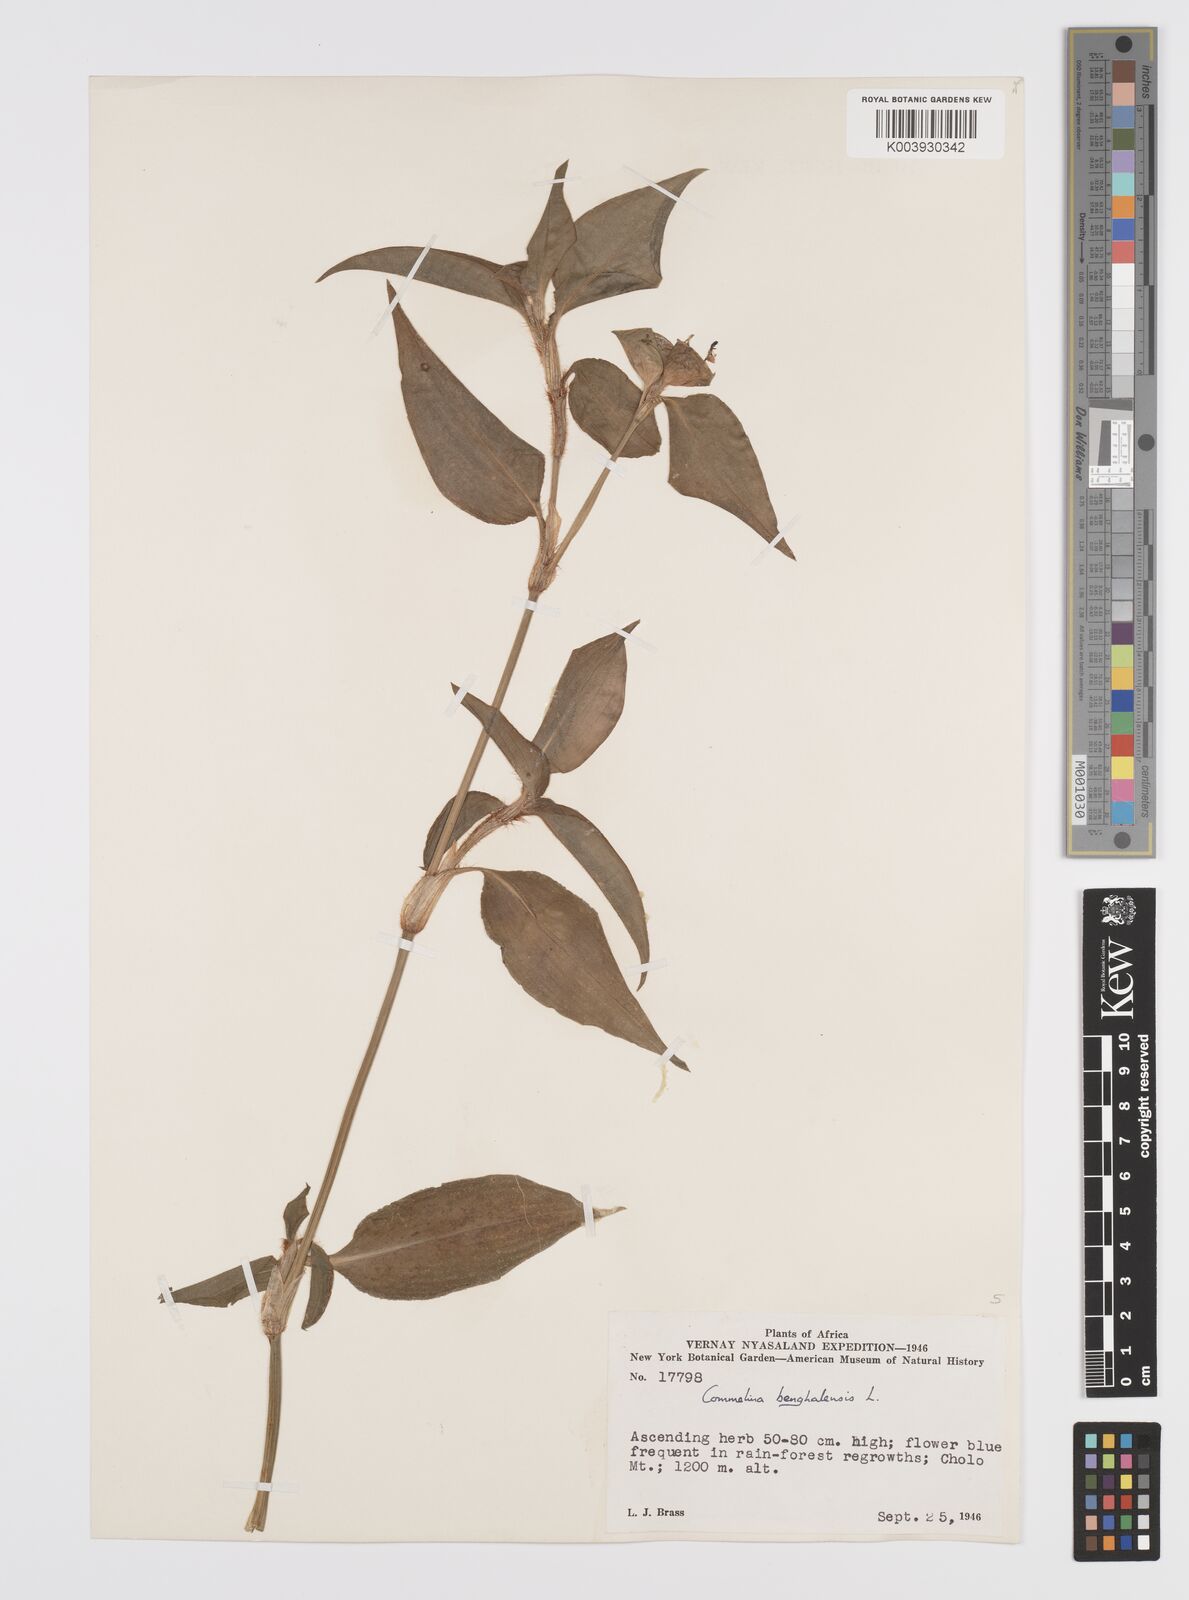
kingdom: Plantae
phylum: Tracheophyta
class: Liliopsida
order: Commelinales
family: Commelinaceae
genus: Commelina
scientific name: Commelina benghalensis
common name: Jio
